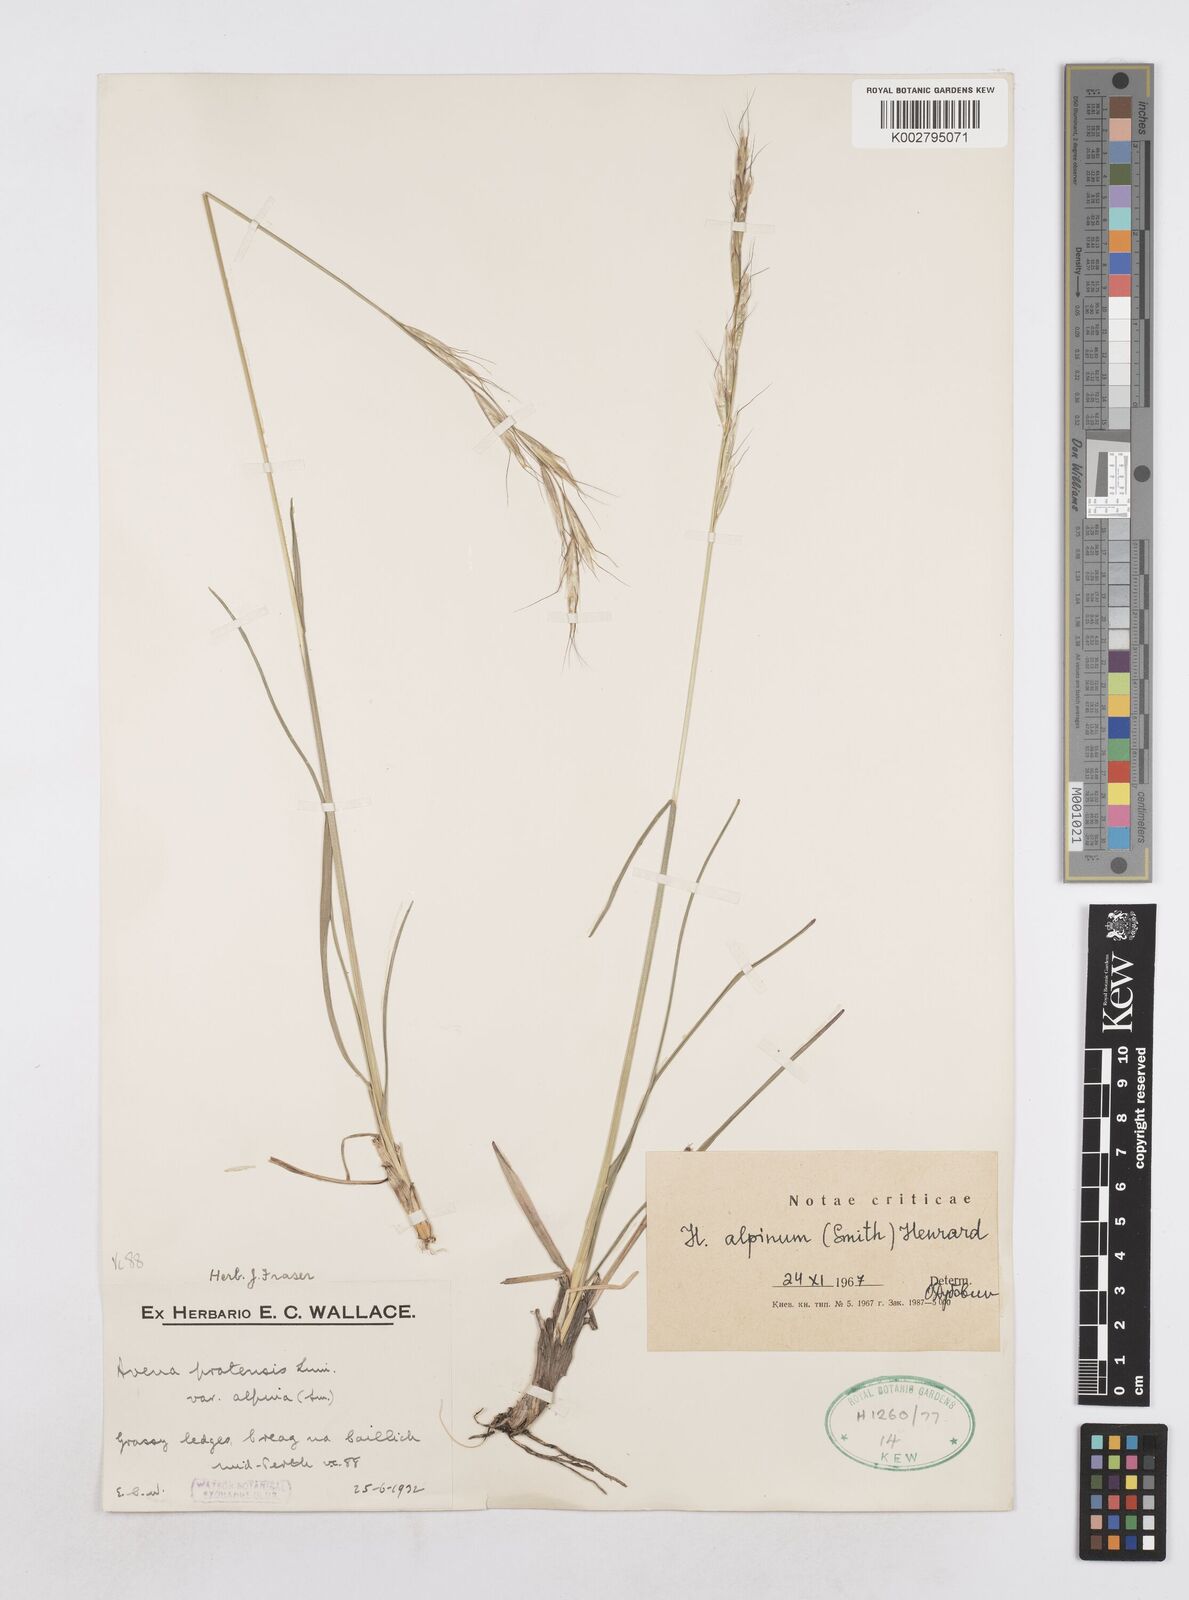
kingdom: Plantae
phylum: Tracheophyta
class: Liliopsida
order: Poales
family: Poaceae
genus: Helictotrichon
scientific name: Helictotrichon
